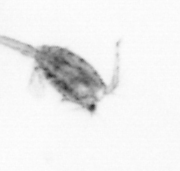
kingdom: Animalia
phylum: Arthropoda
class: Copepoda
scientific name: Copepoda
